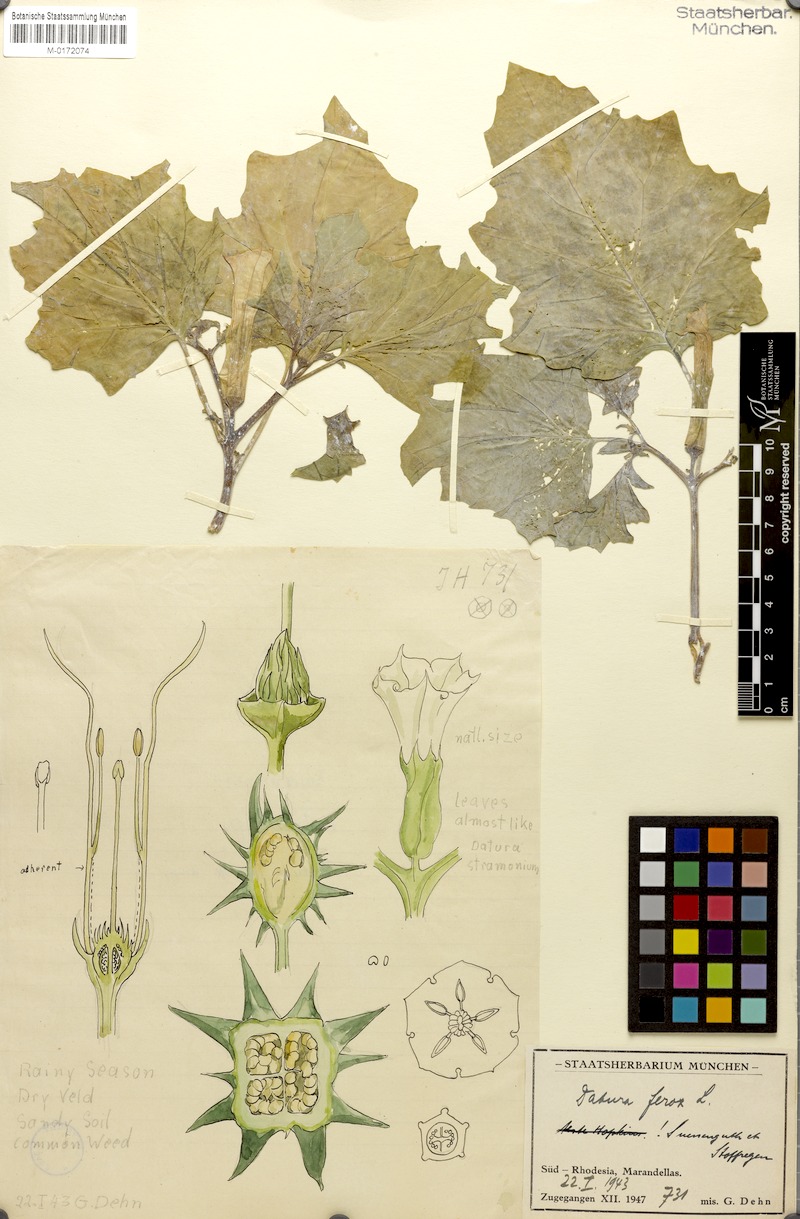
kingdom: Plantae
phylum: Tracheophyta
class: Magnoliopsida
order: Solanales
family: Solanaceae
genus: Datura
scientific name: Datura ferox
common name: Angel's-trumpets
